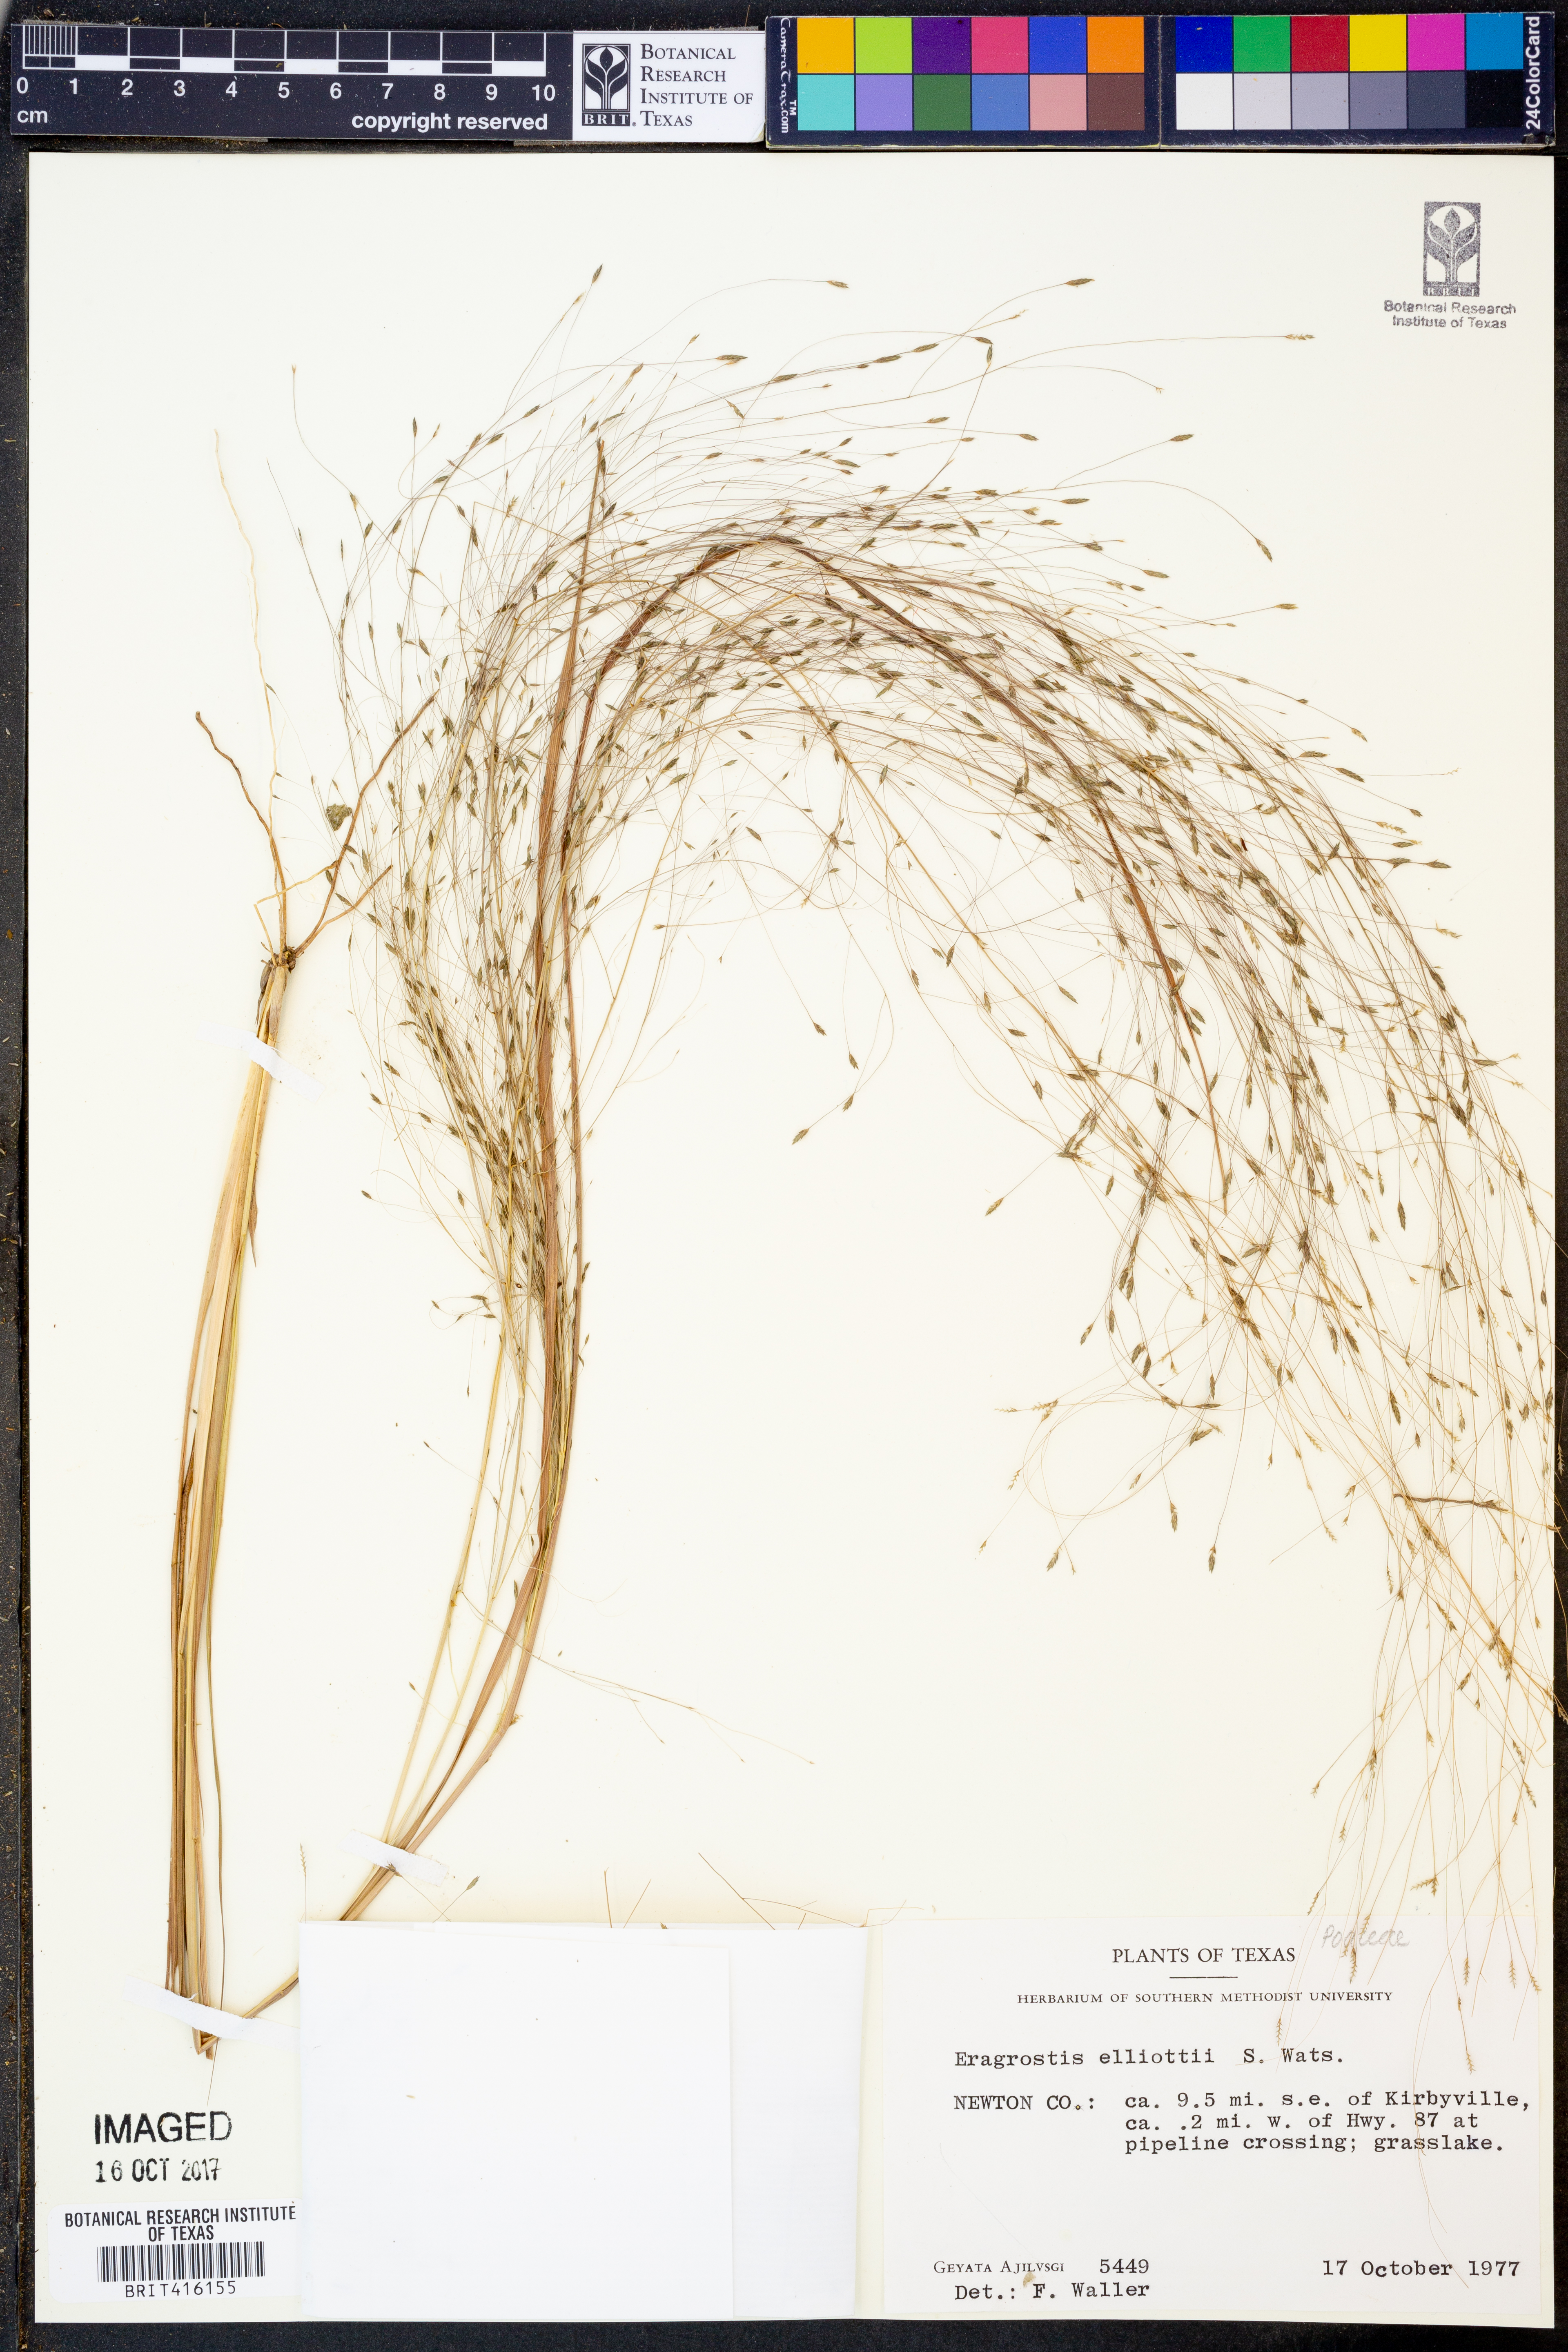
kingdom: Plantae
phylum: Tracheophyta
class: Liliopsida
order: Poales
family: Poaceae
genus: Eragrostis
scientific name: Eragrostis elliottii
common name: Elliott's love grass
